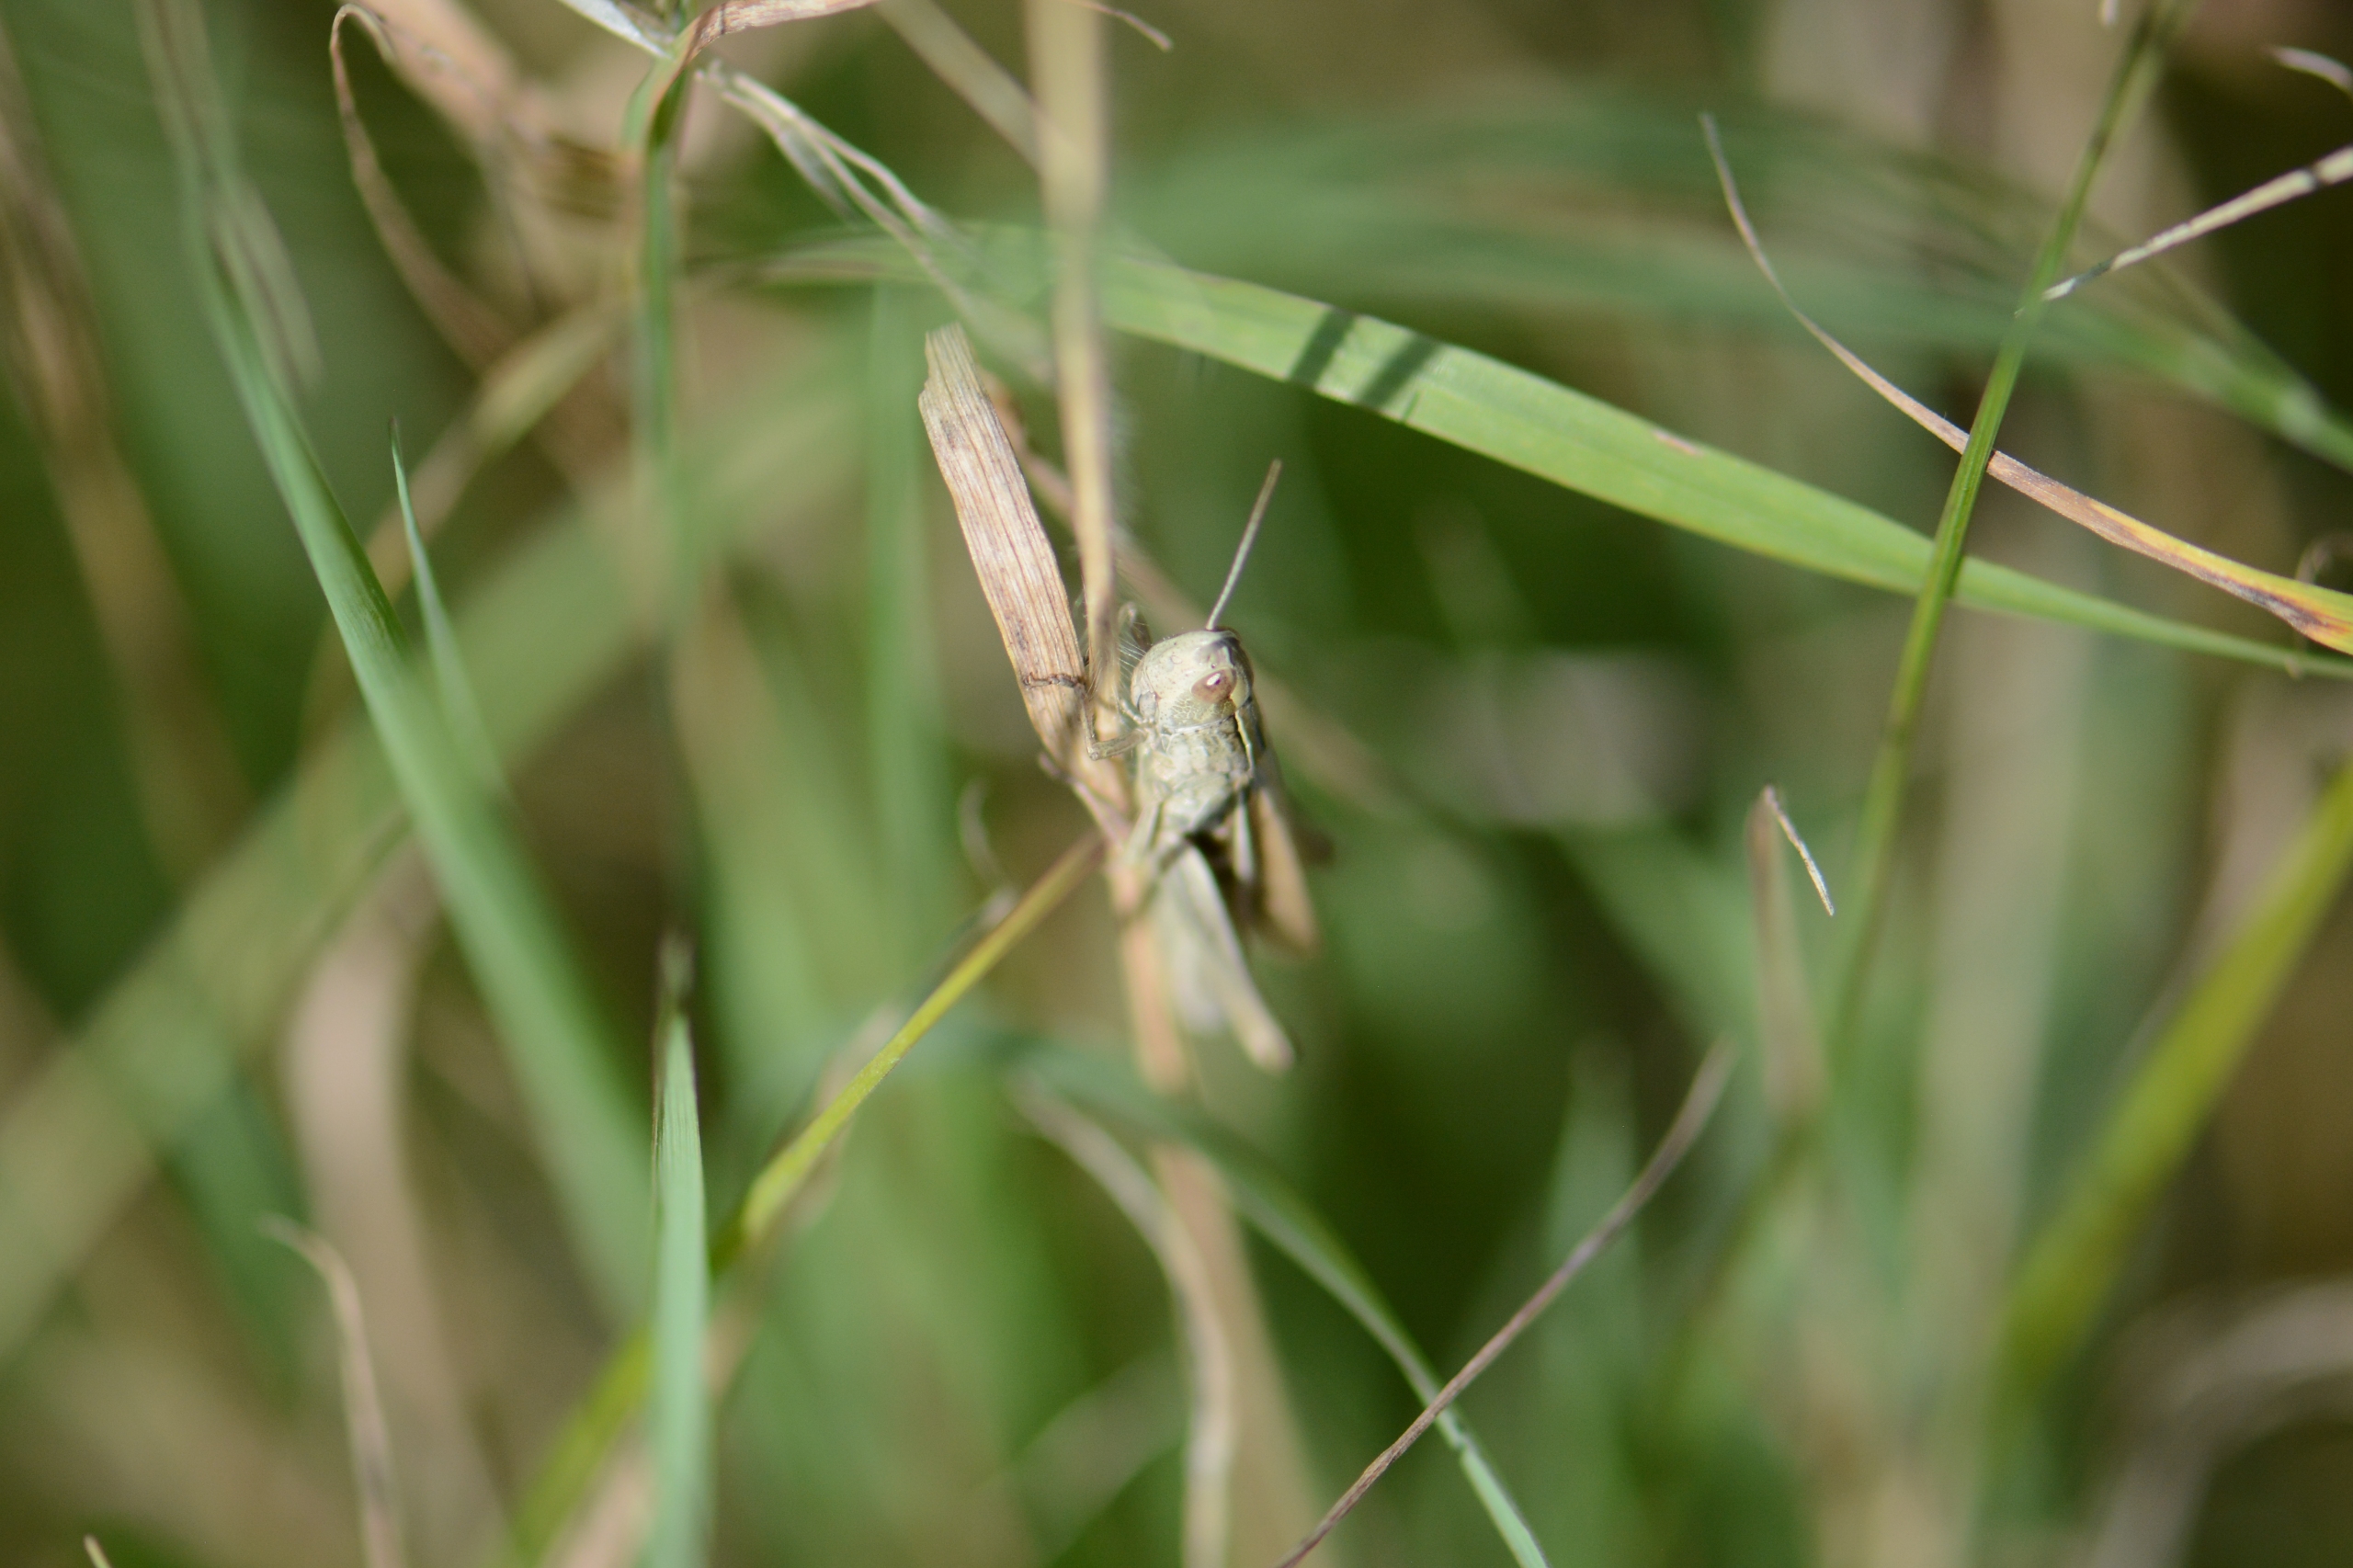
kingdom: Animalia
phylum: Arthropoda
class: Insecta
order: Orthoptera
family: Acrididae
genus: Chorthippus
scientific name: Chorthippus albomarginatus
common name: Strandengsgræshoppe
